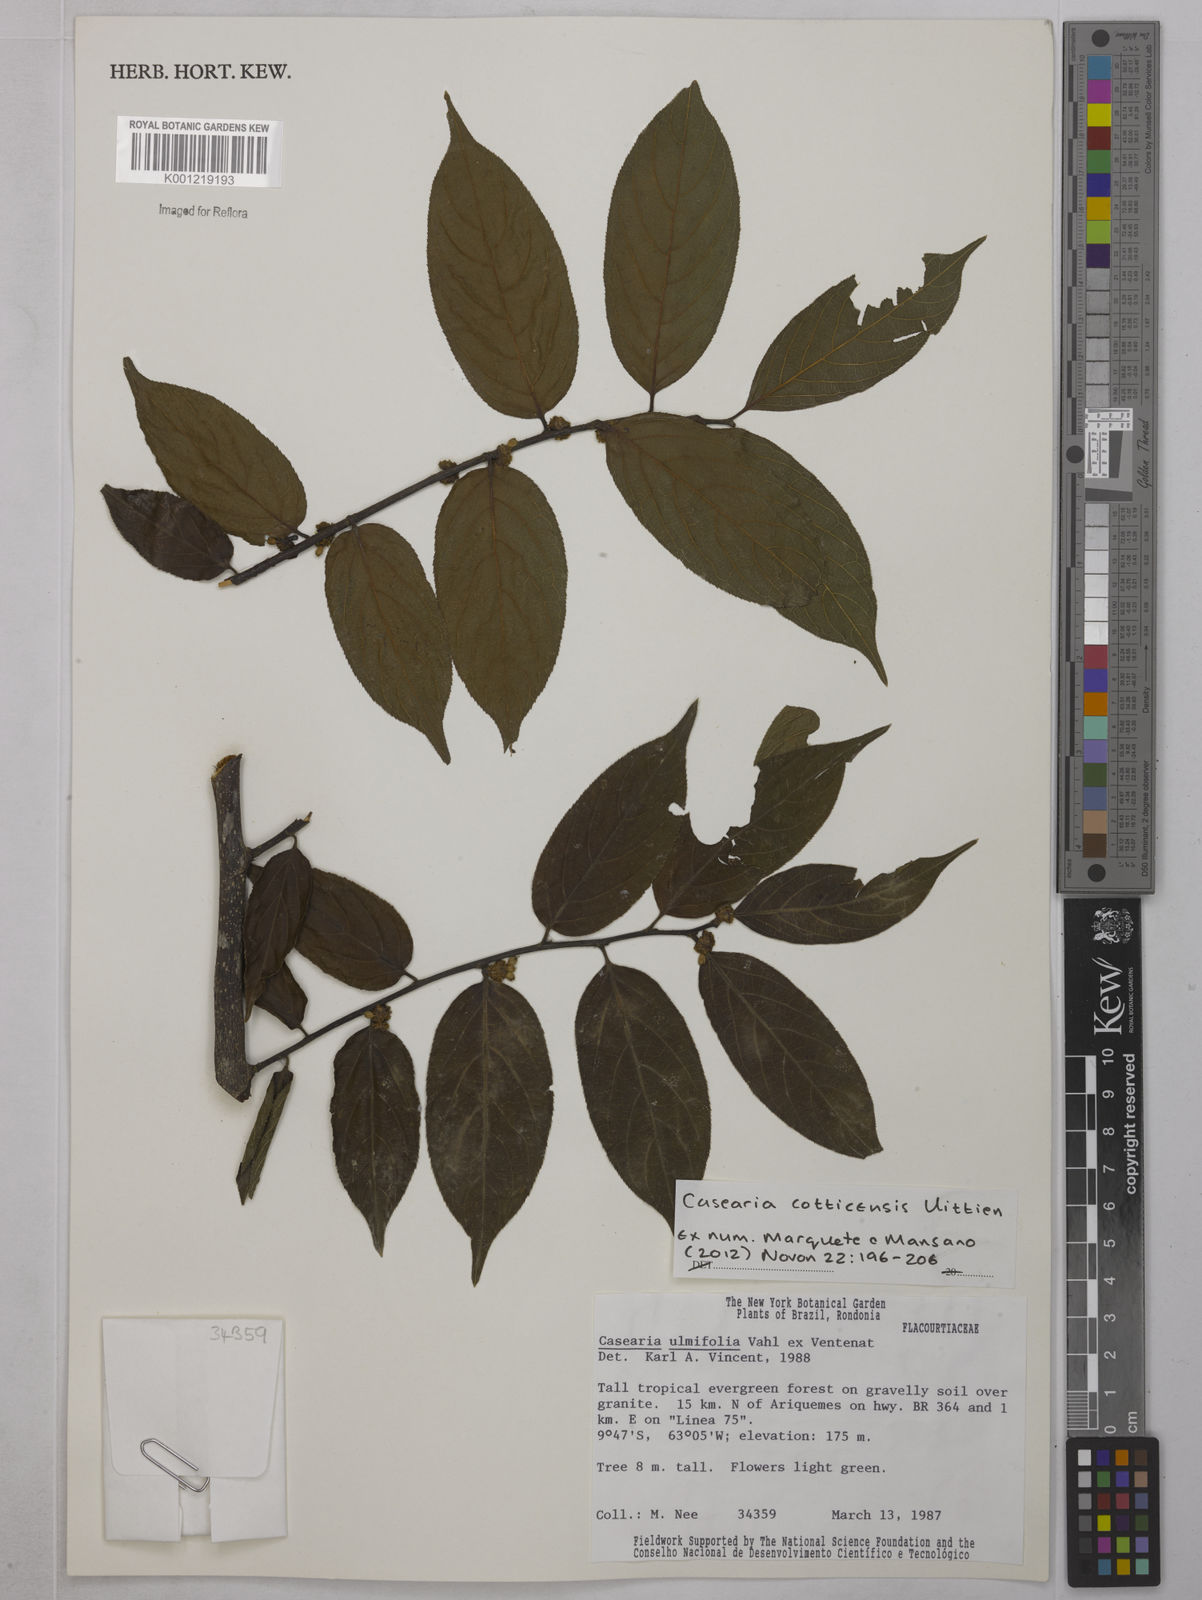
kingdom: Plantae
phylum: Tracheophyta
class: Magnoliopsida
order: Malpighiales
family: Salicaceae
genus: Casearia
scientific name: Casearia cotticensis
